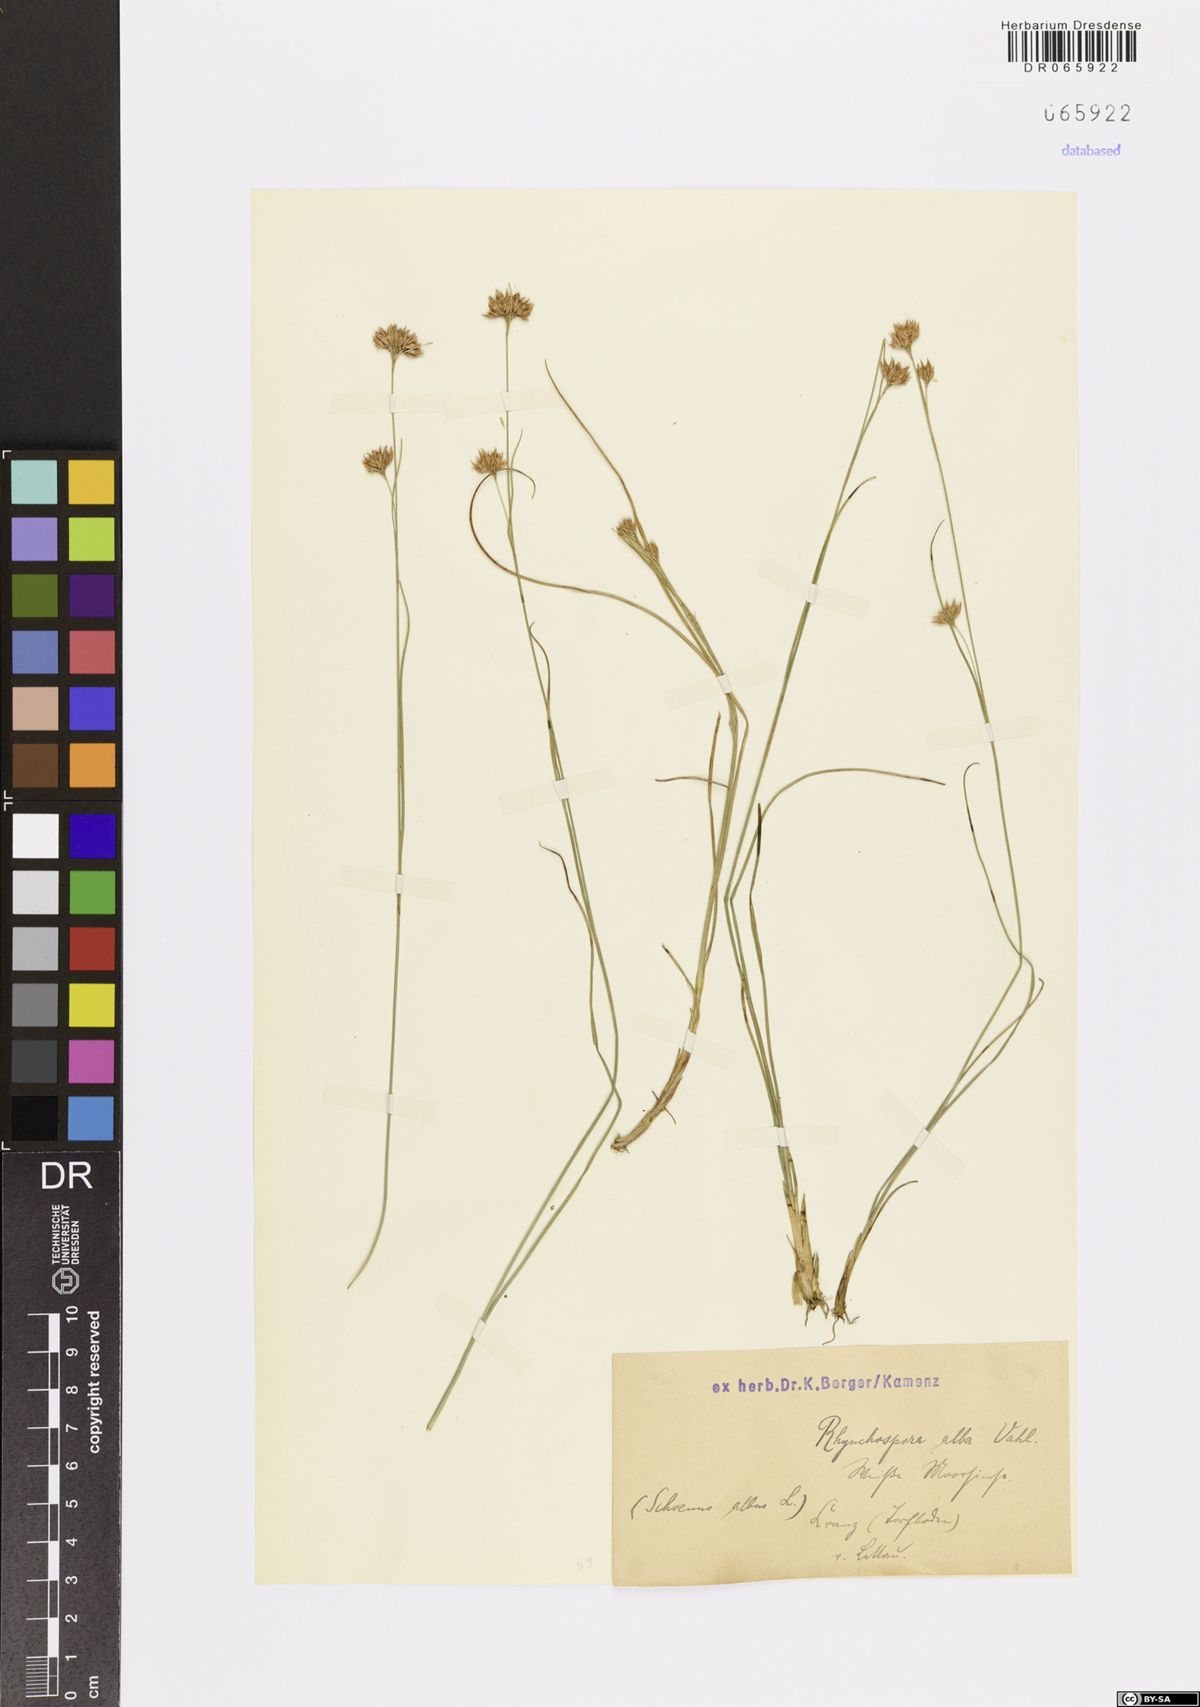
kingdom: Plantae
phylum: Tracheophyta
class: Liliopsida
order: Poales
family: Cyperaceae
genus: Rhynchospora
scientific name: Rhynchospora alba
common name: White beak-sedge
